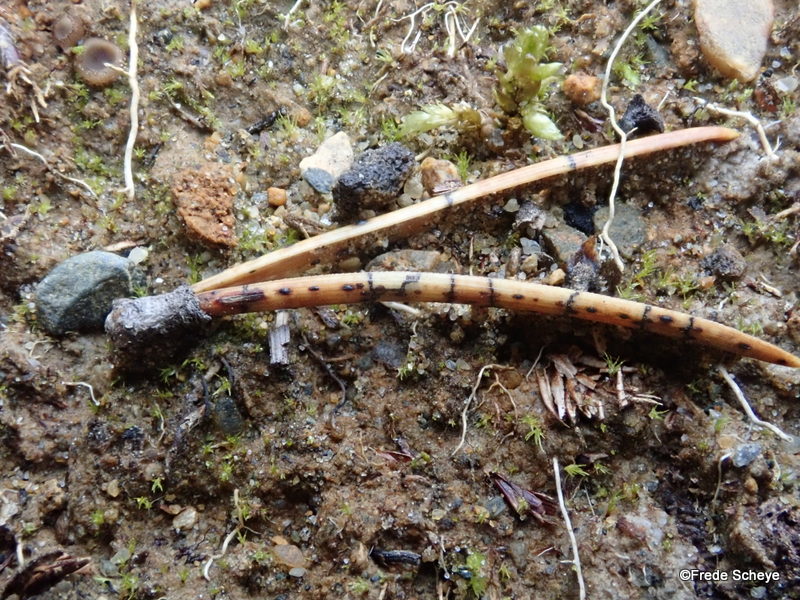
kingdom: Fungi
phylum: Ascomycota
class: Leotiomycetes
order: Rhytismatales
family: Rhytismataceae
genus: Lophodermium
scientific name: Lophodermium pinastri
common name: fyrre-fureplet
